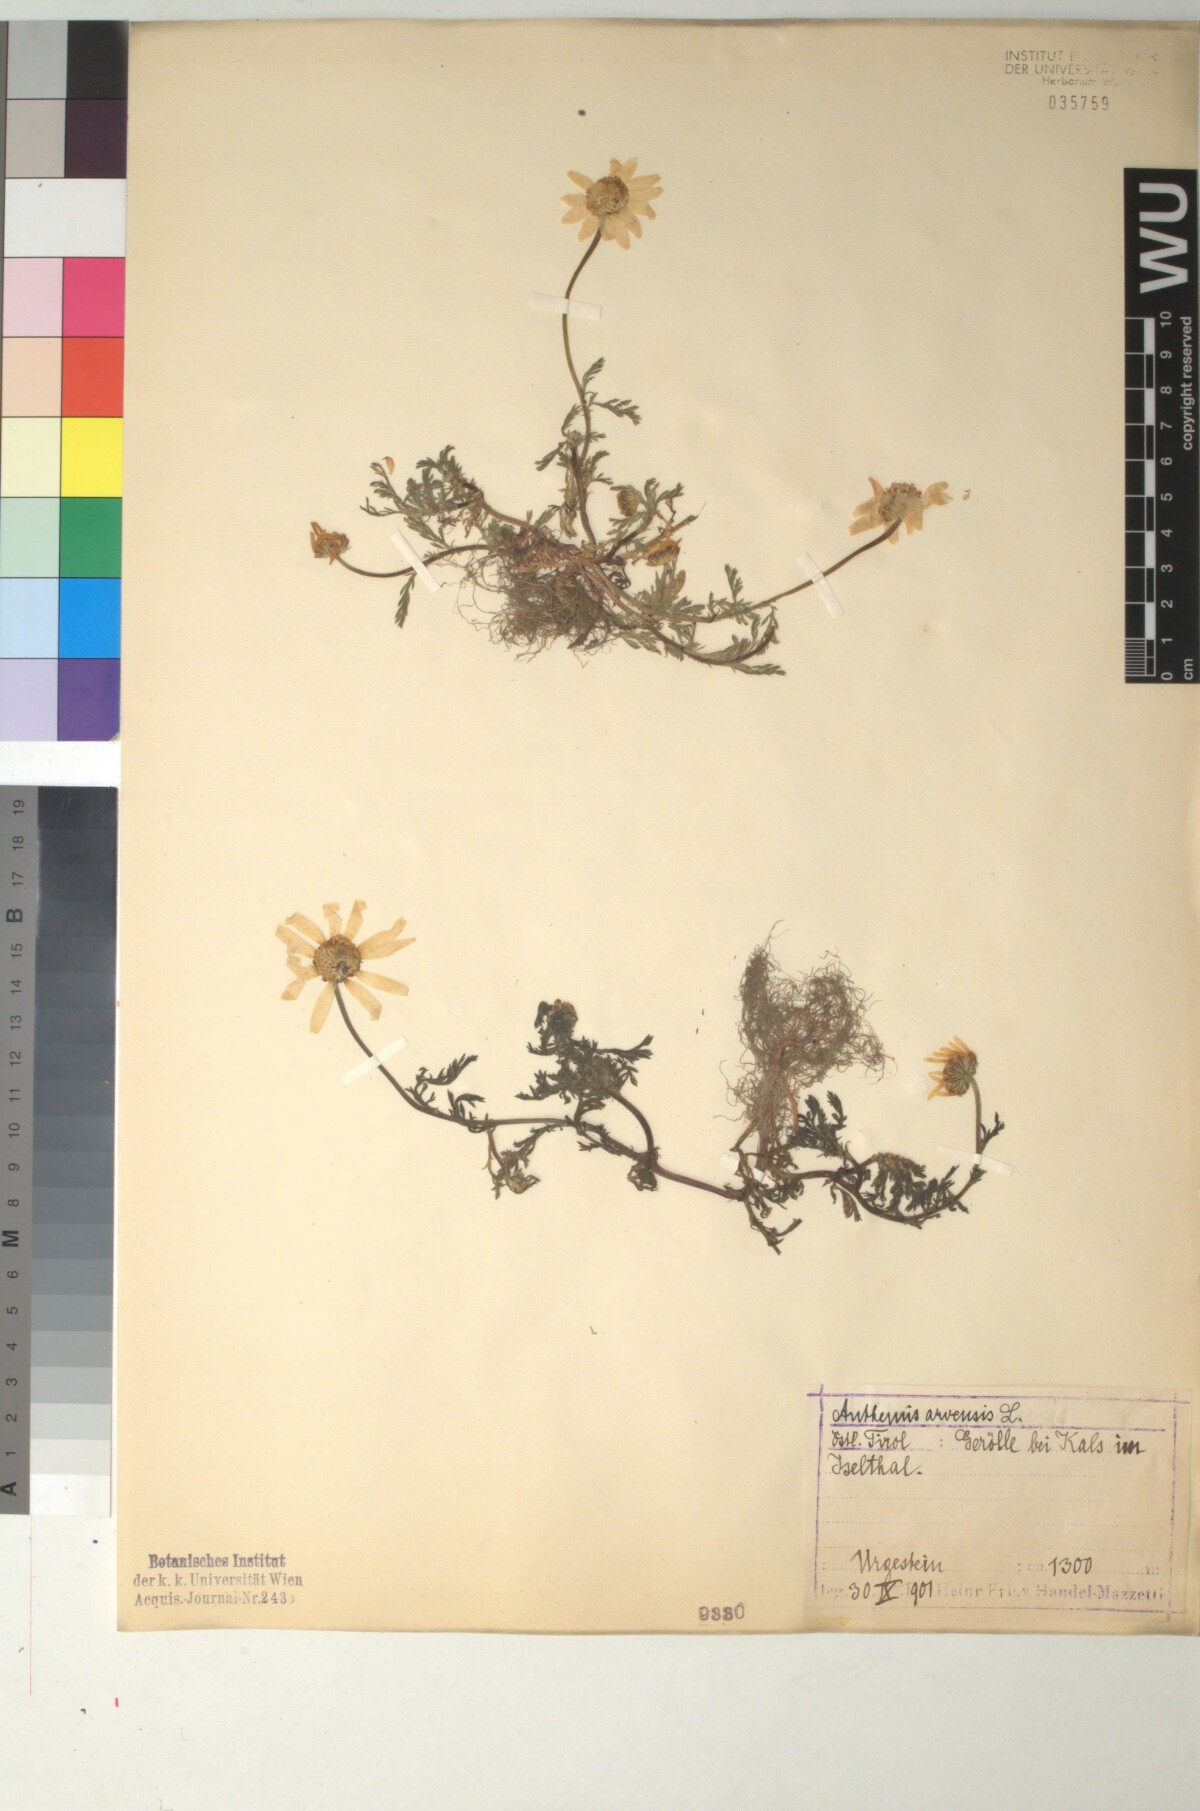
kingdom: Plantae
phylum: Tracheophyta
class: Magnoliopsida
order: Asterales
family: Asteraceae
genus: Anthemis
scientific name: Anthemis arvensis
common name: Corn chamomile
